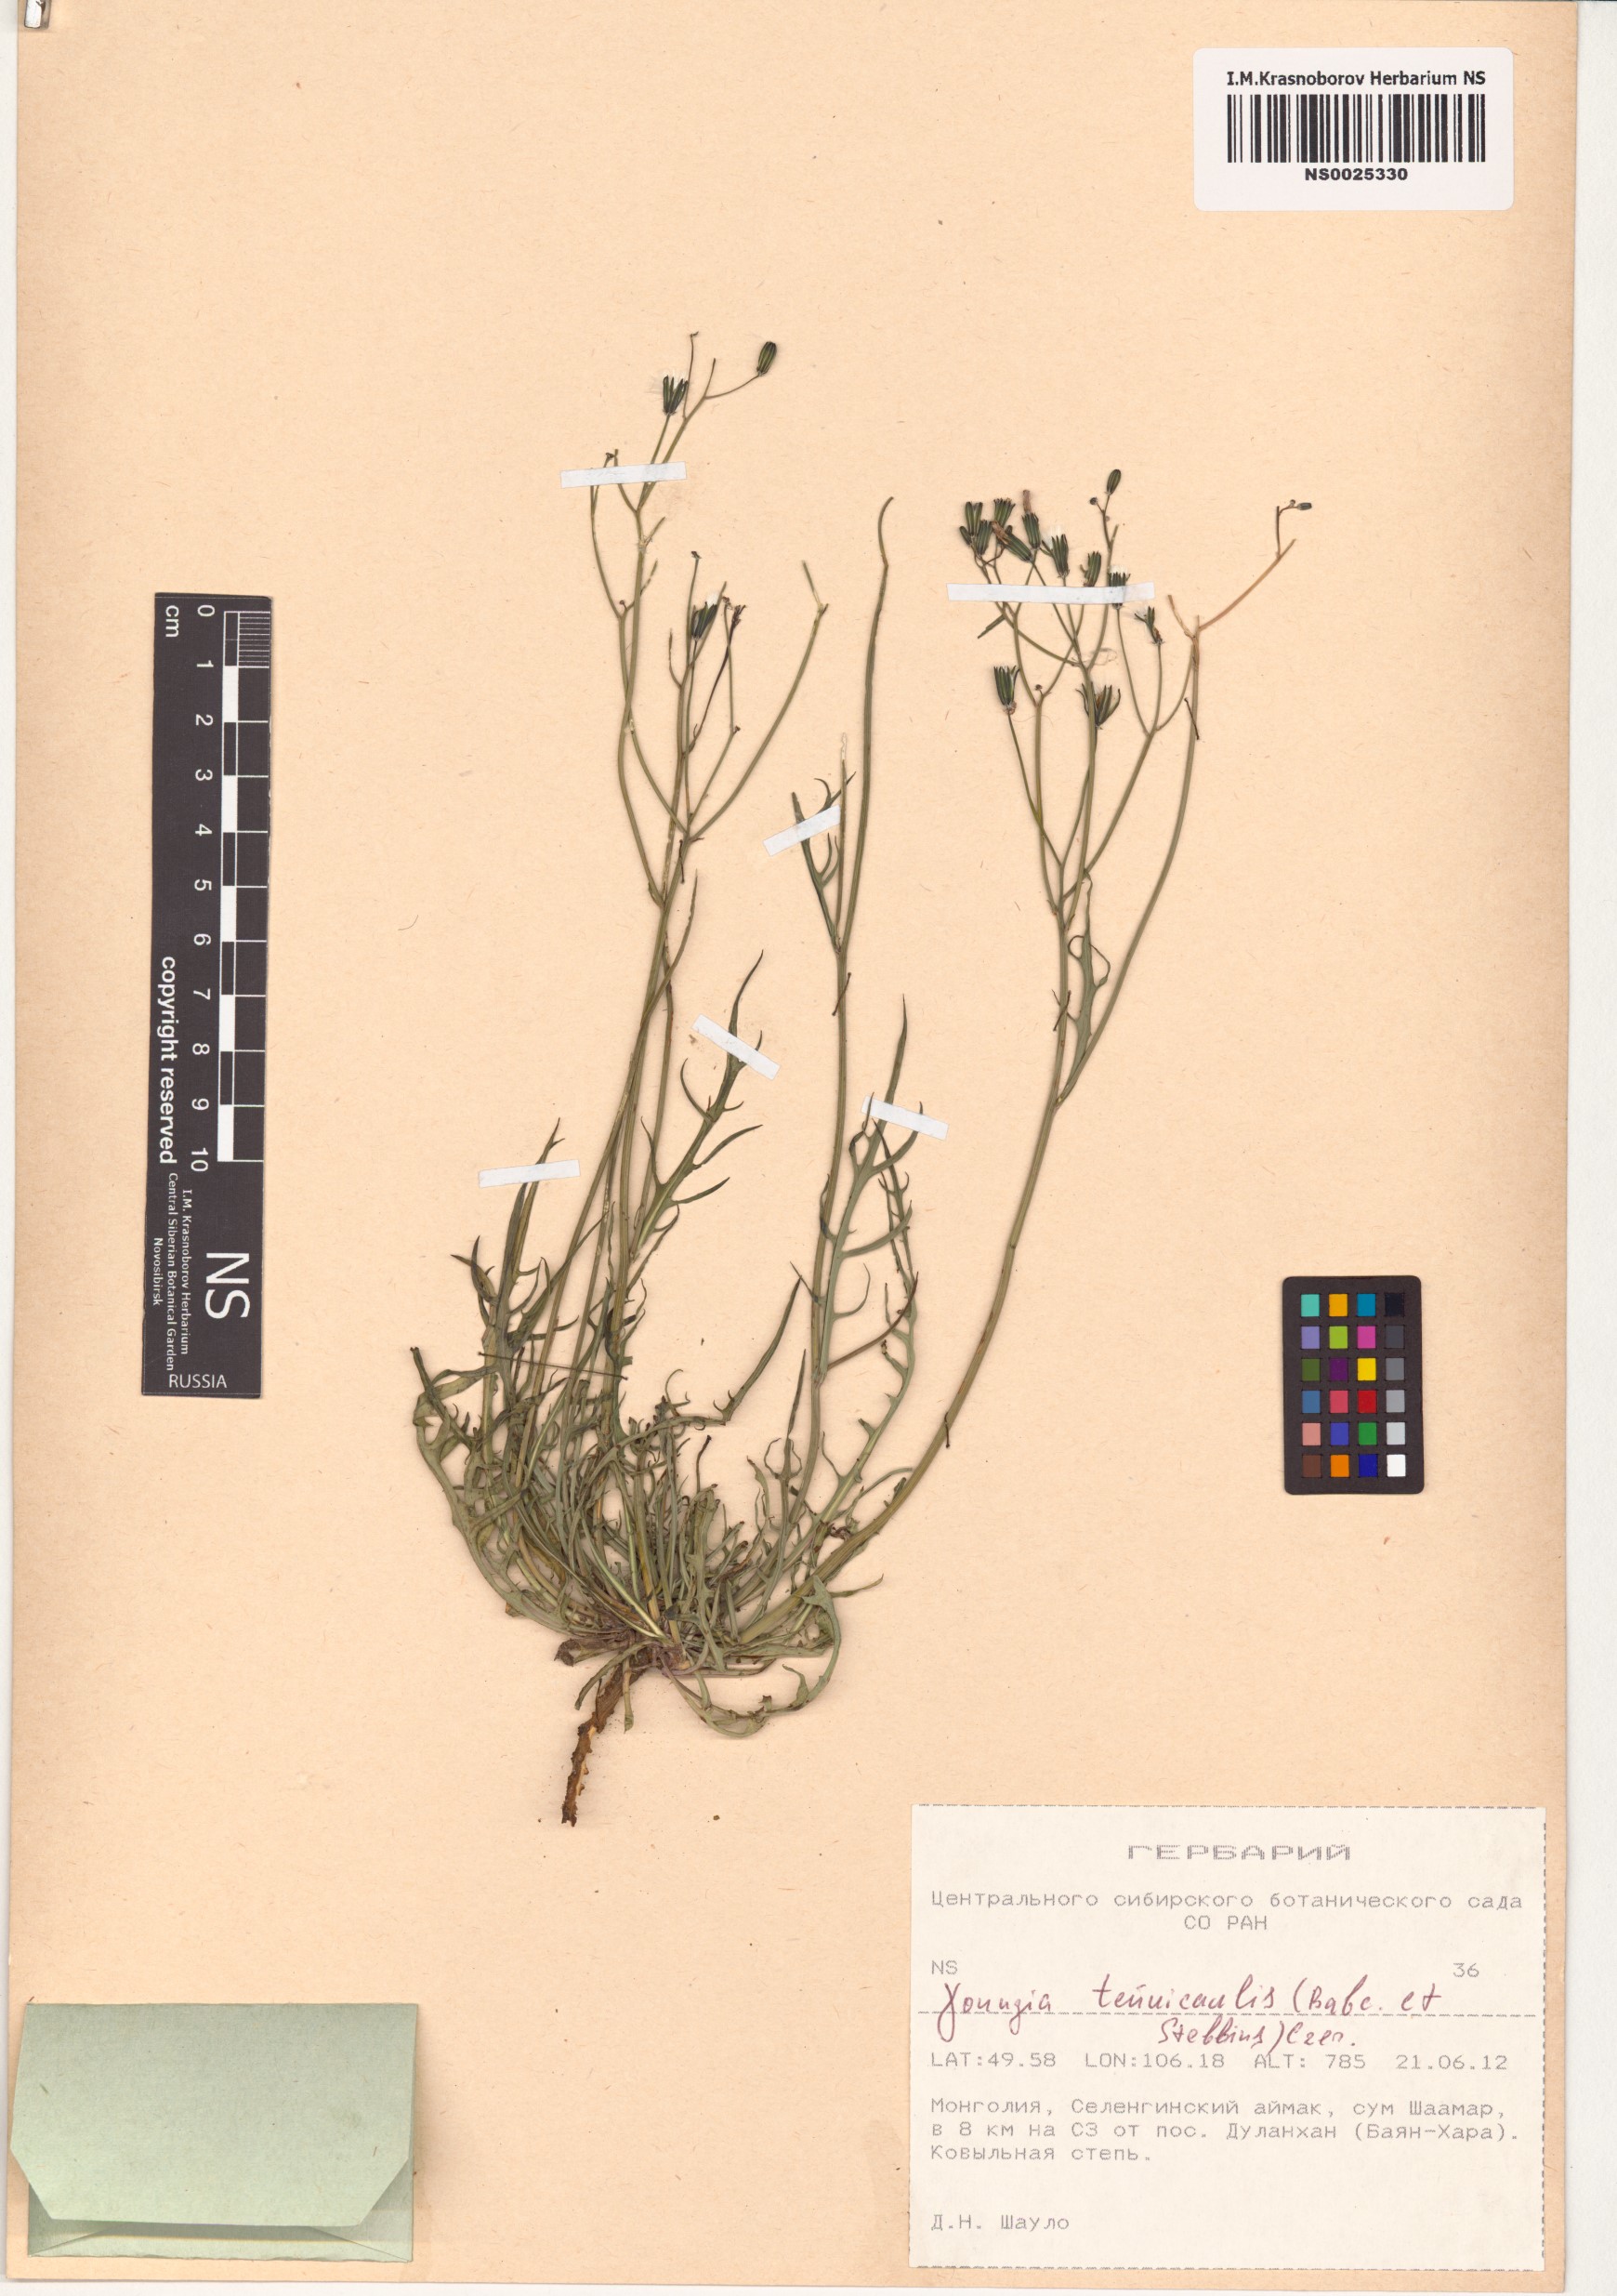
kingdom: Plantae
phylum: Tracheophyta
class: Magnoliopsida
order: Asterales
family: Asteraceae
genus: Crepidiastrum
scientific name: Crepidiastrum akagii
